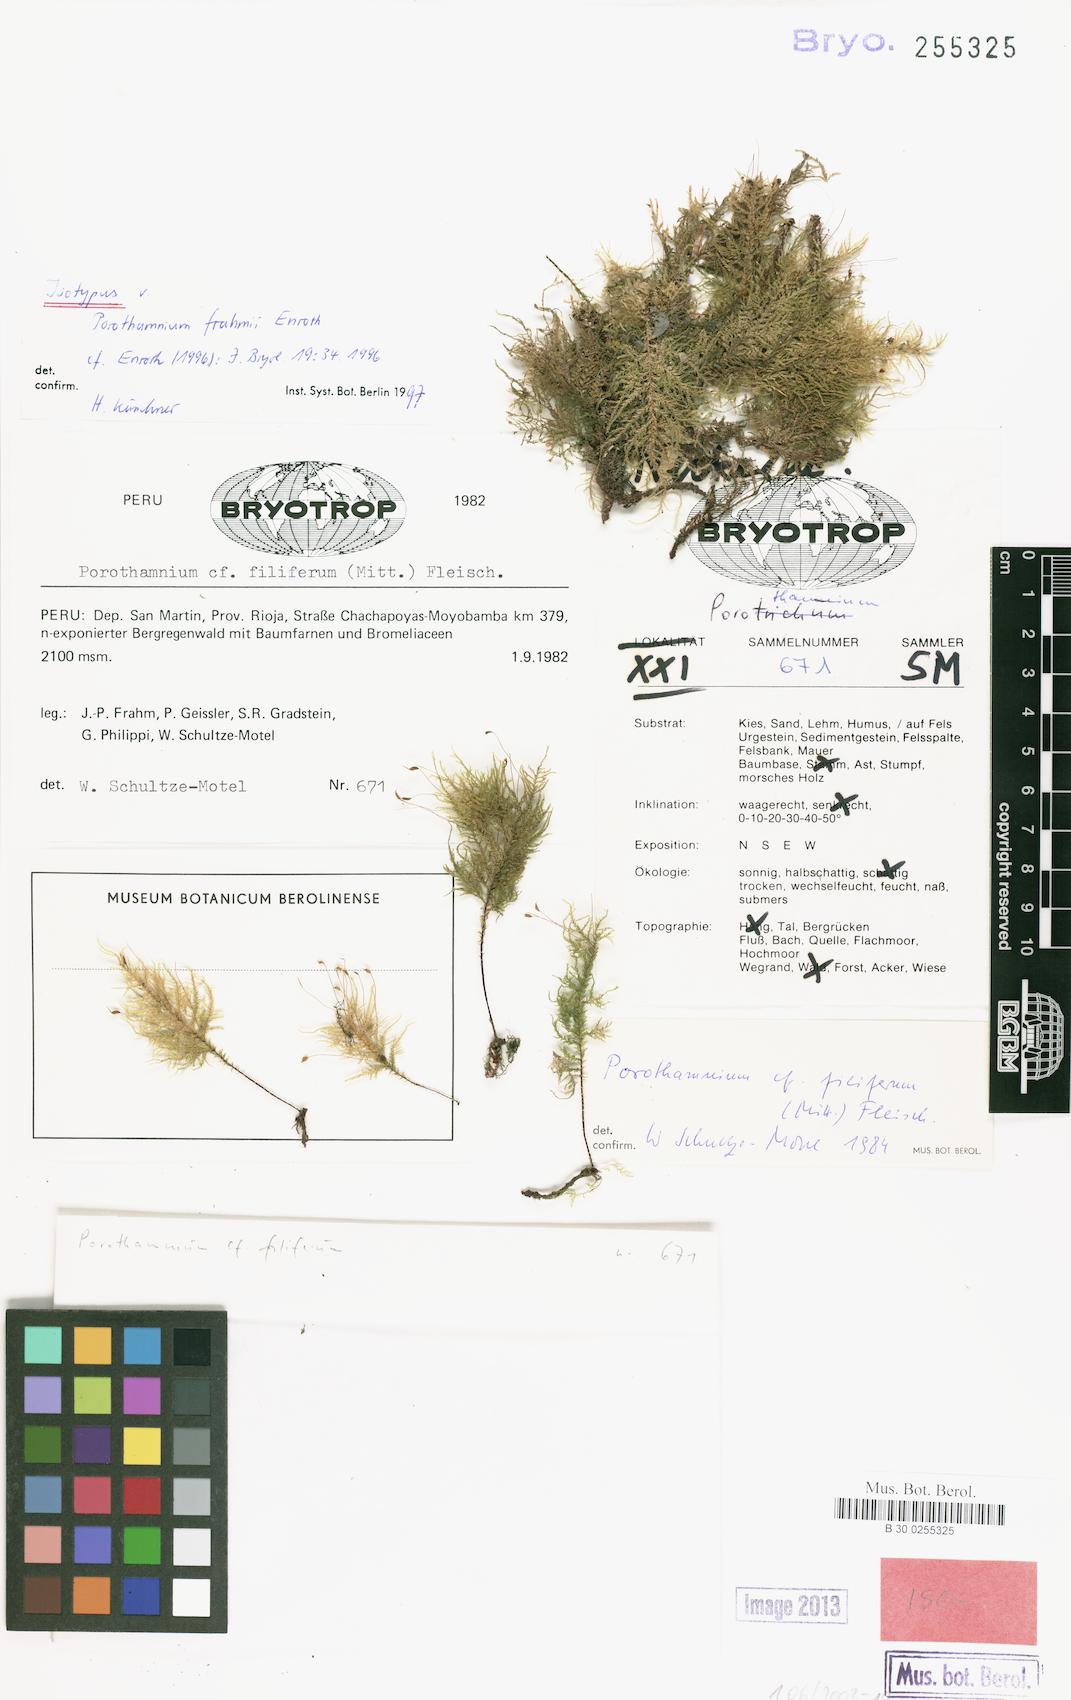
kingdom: Plantae
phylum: Bryophyta
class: Bryopsida
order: Hypnales
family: Neckeraceae
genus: Porotrichum
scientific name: Porotrichum frahmii
